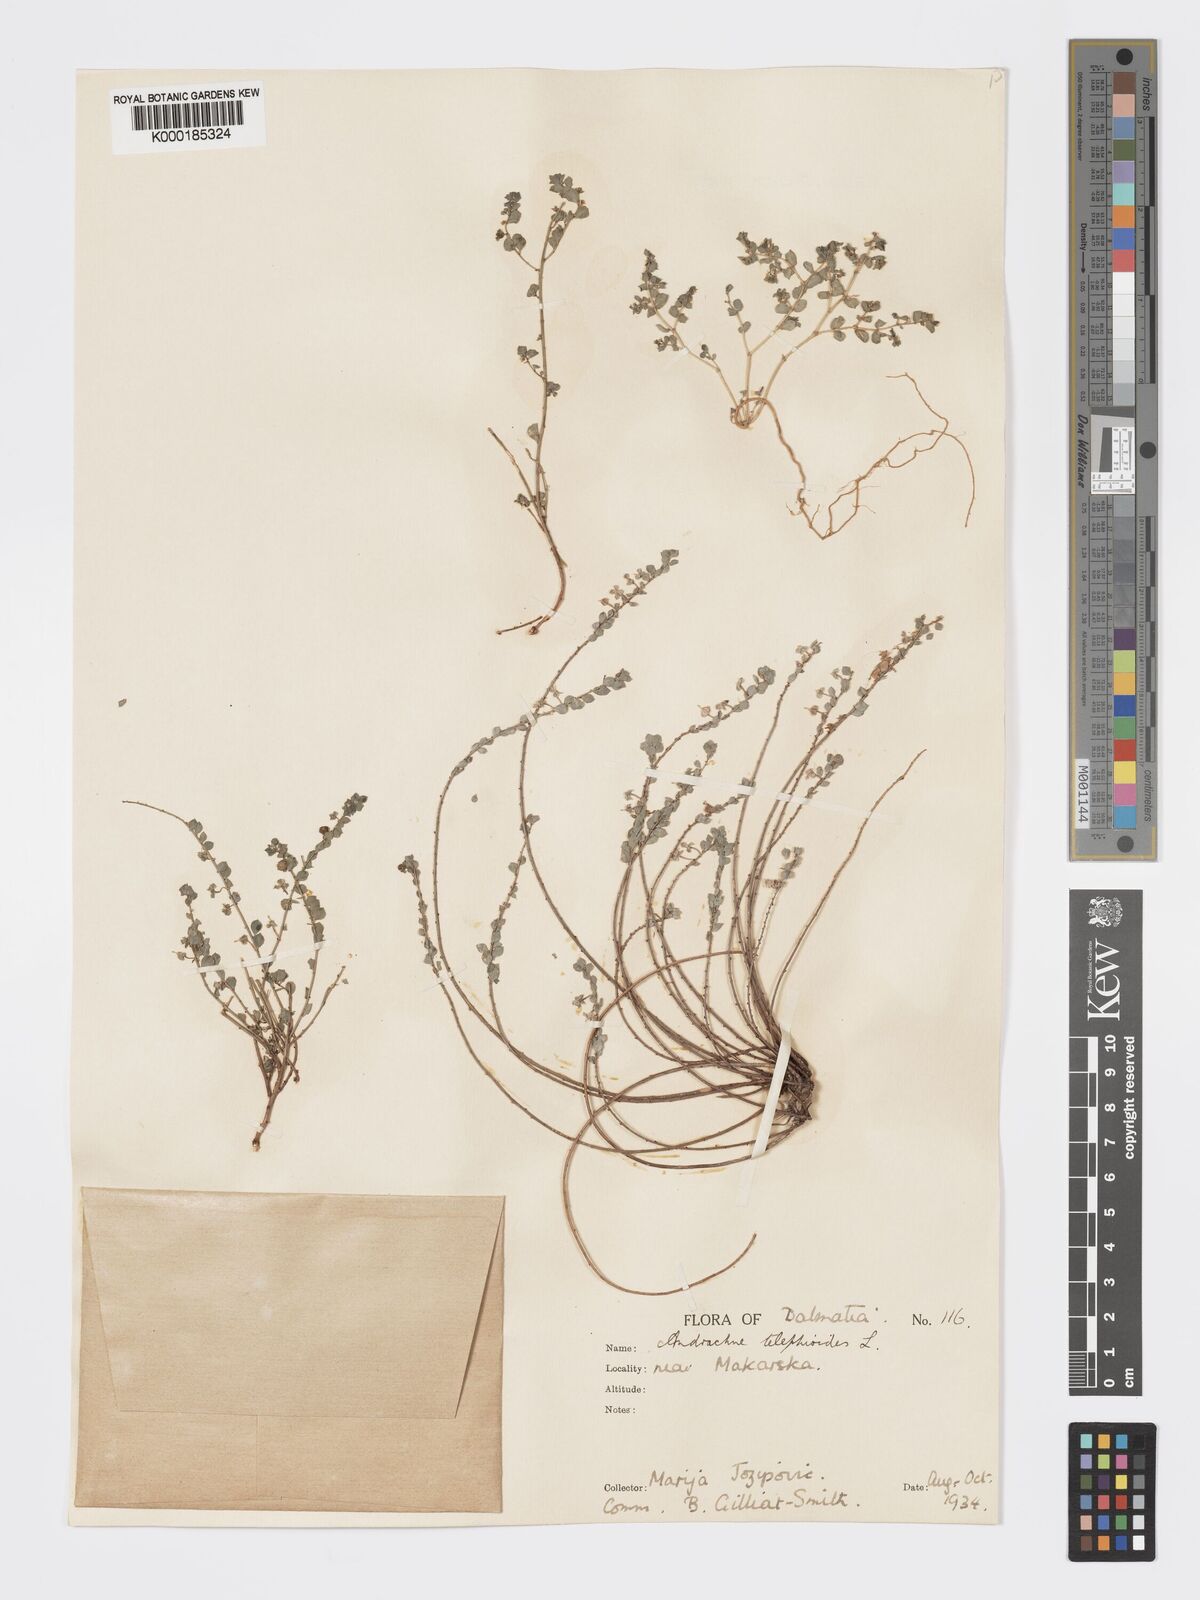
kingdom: Plantae
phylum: Tracheophyta
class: Magnoliopsida
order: Malpighiales
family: Phyllanthaceae
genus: Andrachne
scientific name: Andrachne telephioides
